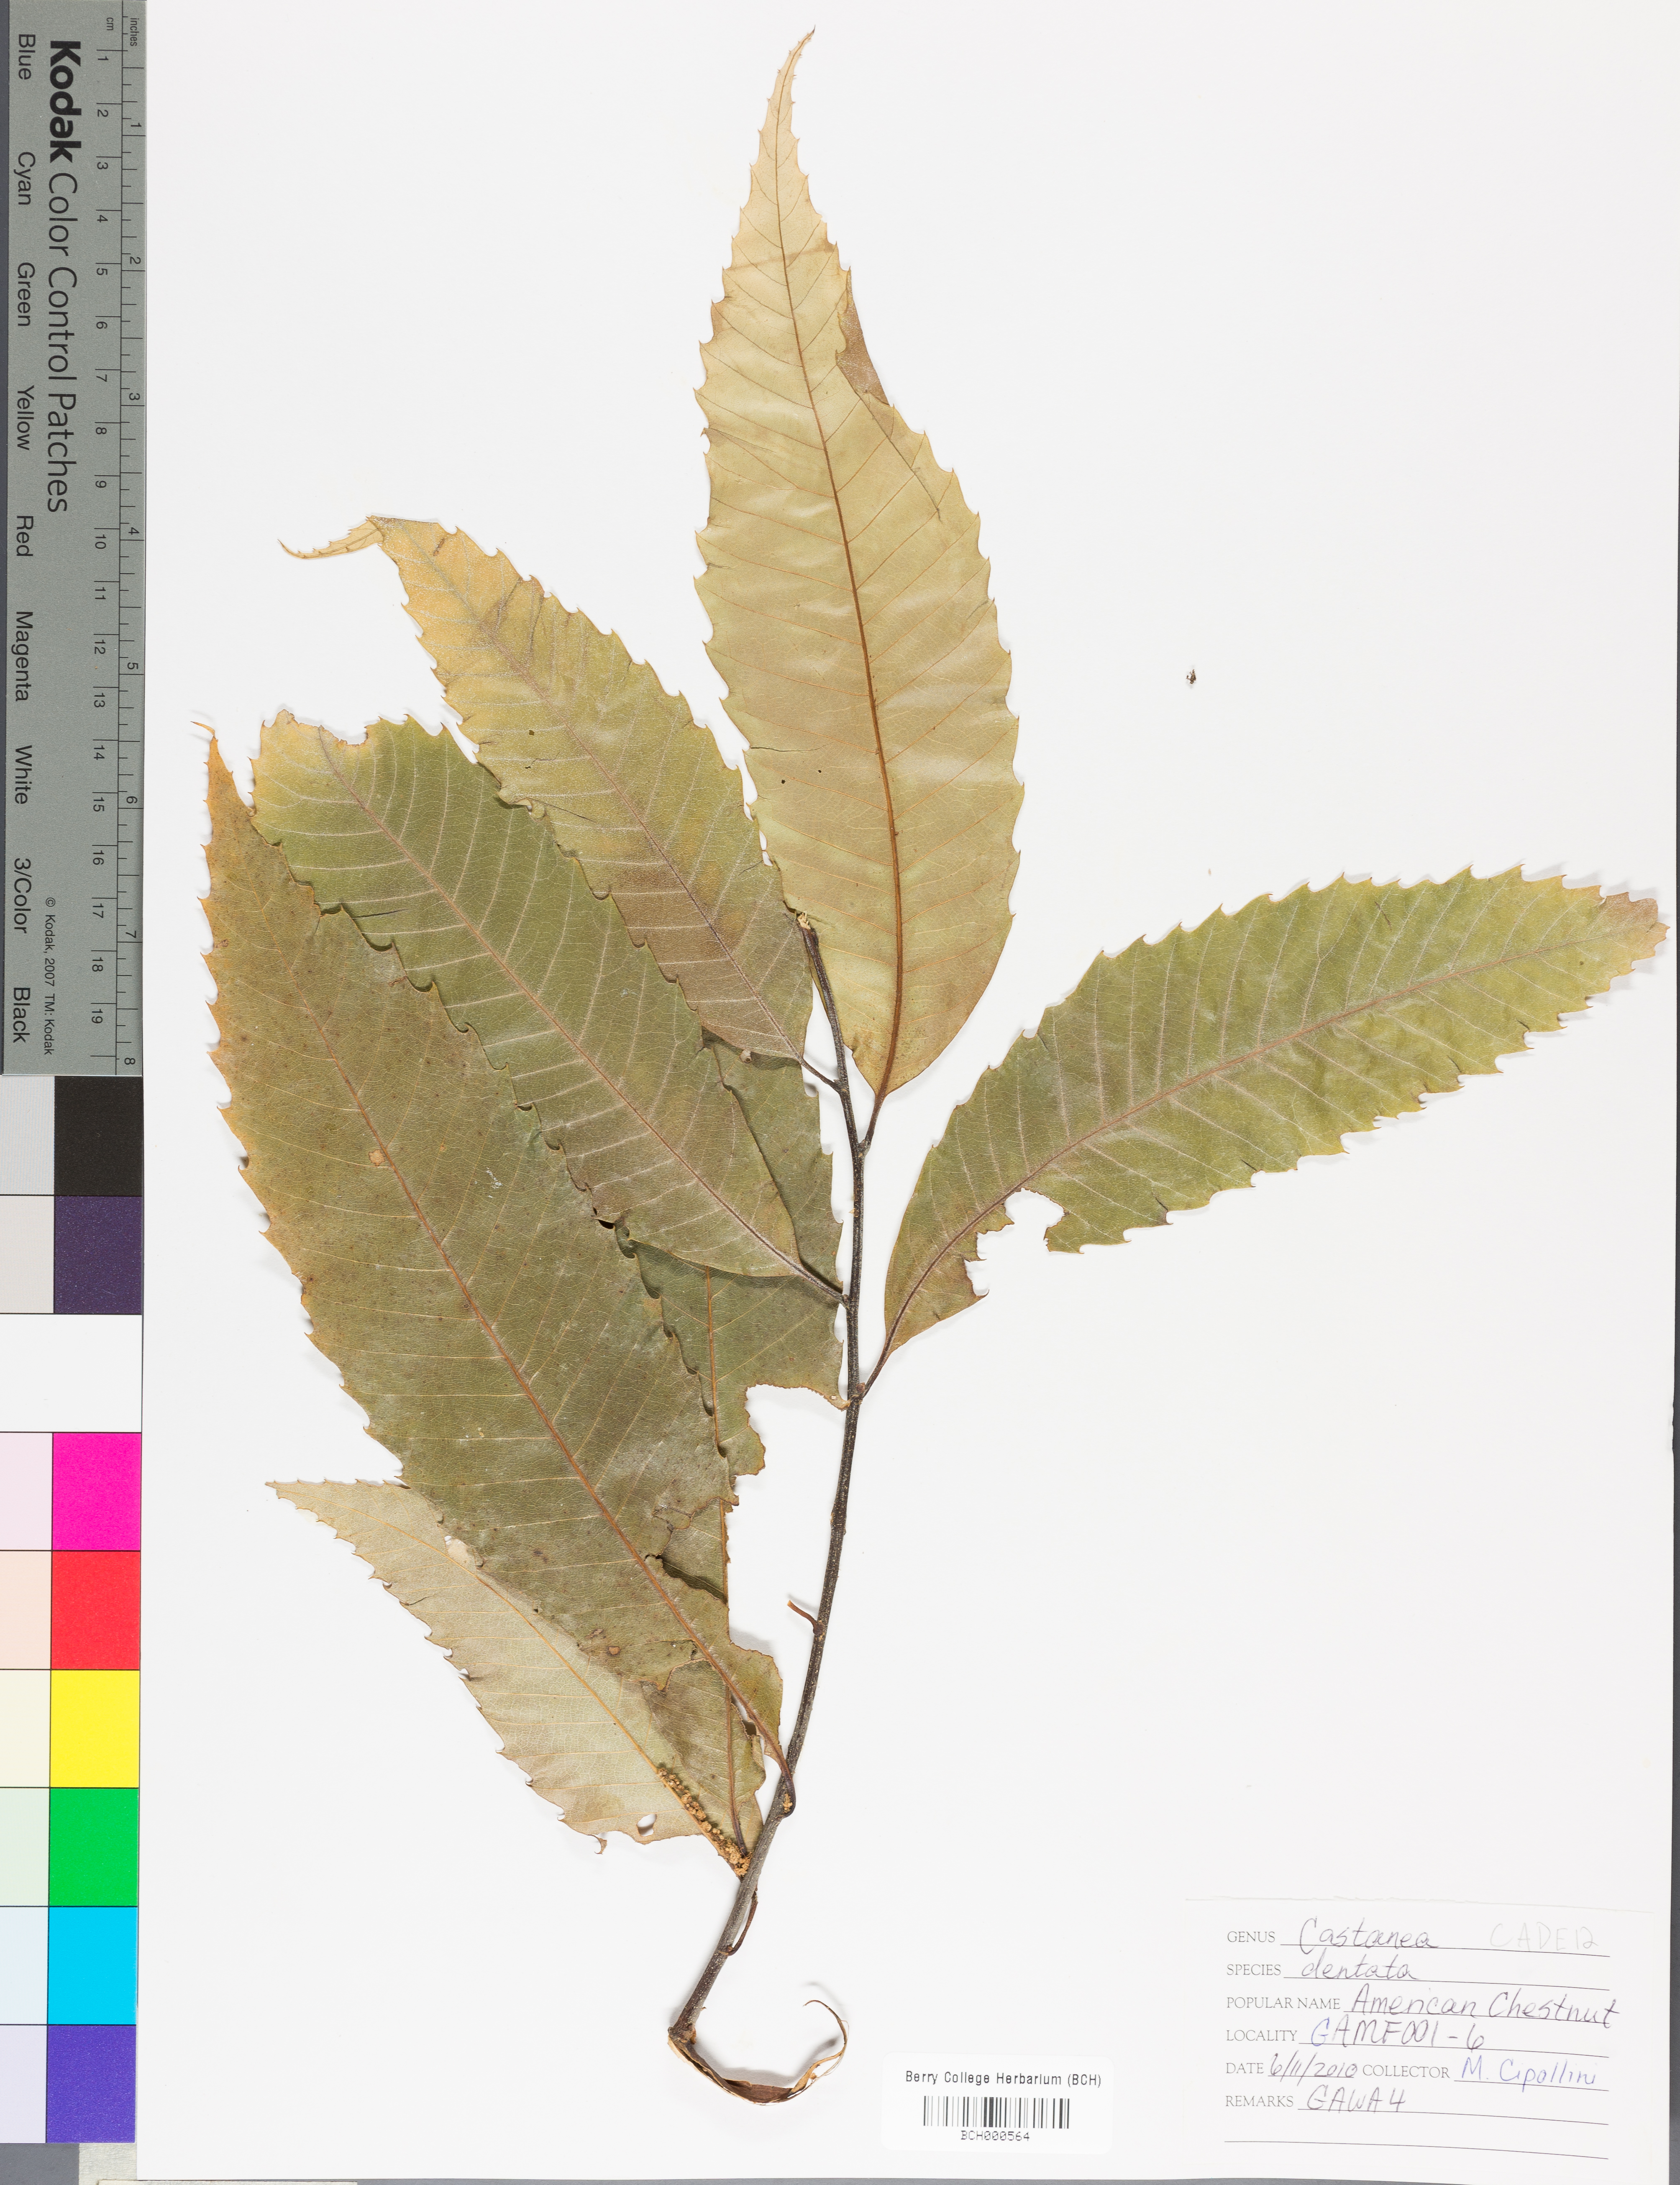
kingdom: Plantae
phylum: Tracheophyta
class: Magnoliopsida
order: Fagales
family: Fagaceae
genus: Castanea
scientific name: Castanea dentata
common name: American chestnut
